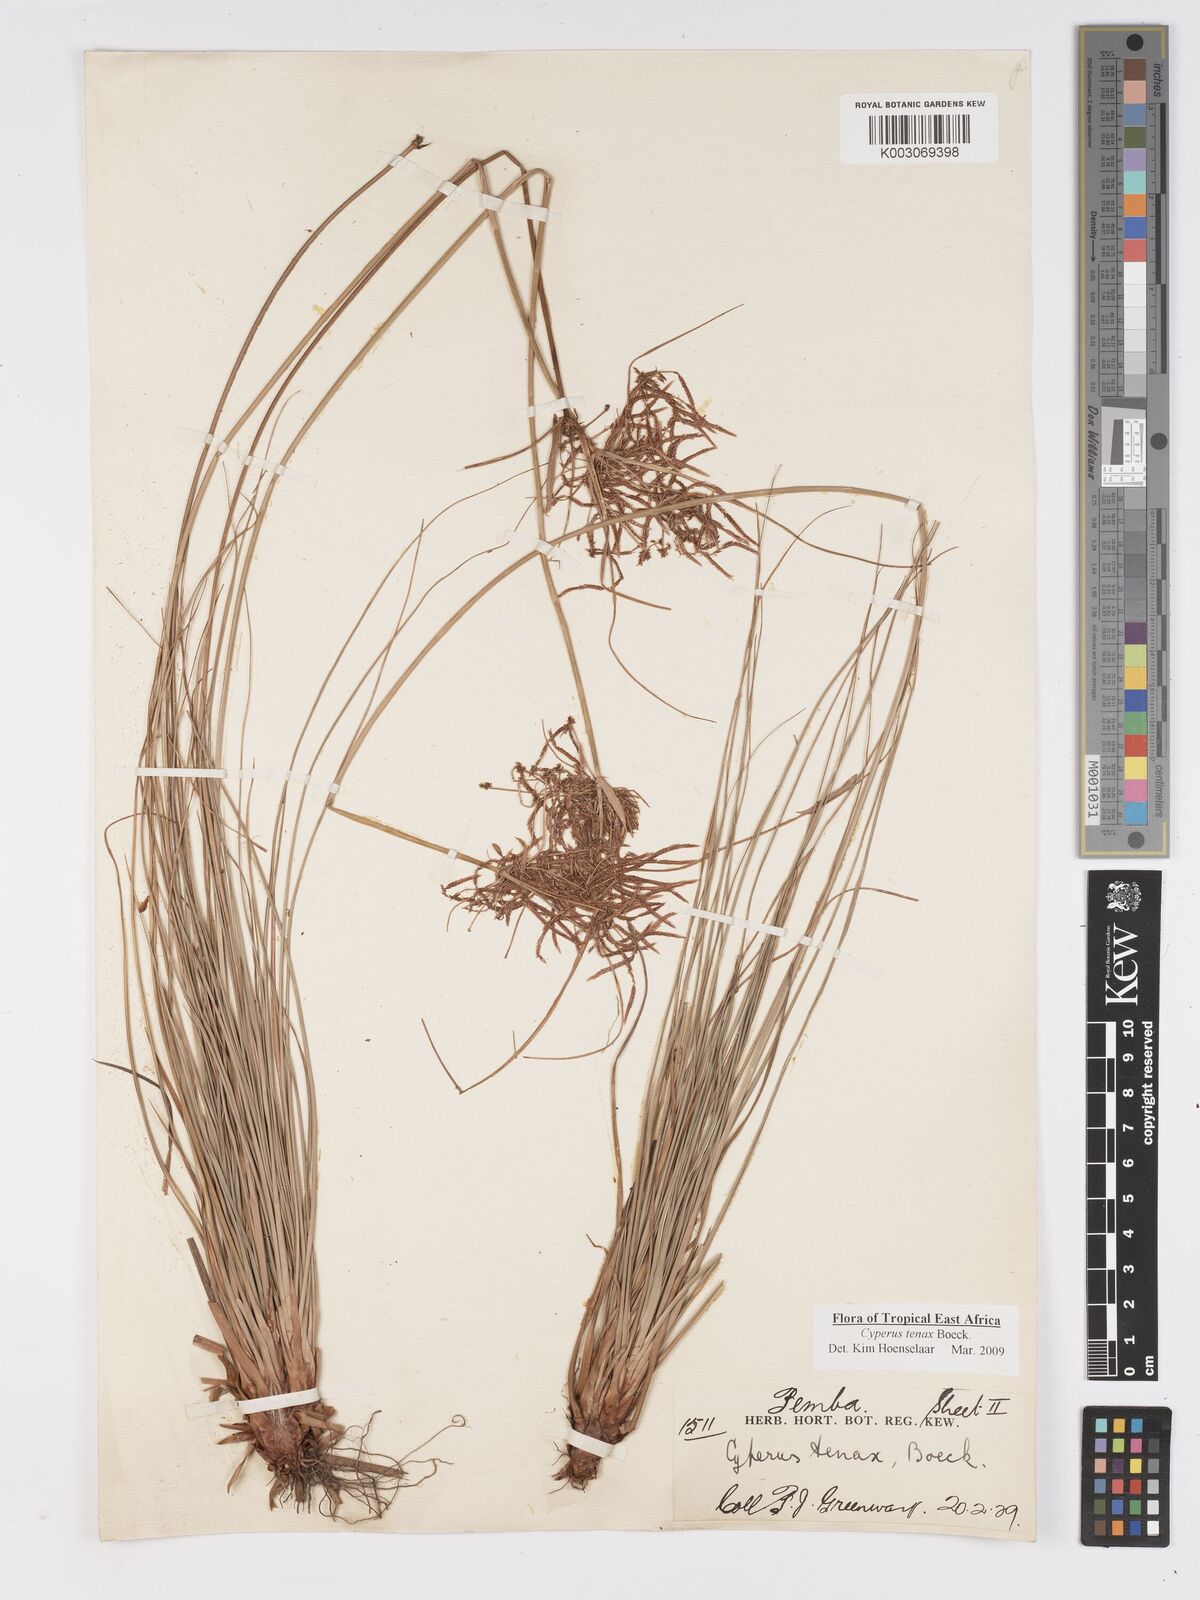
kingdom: Plantae
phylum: Tracheophyta
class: Liliopsida
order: Poales
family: Cyperaceae
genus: Cyperus
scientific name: Cyperus tenax
